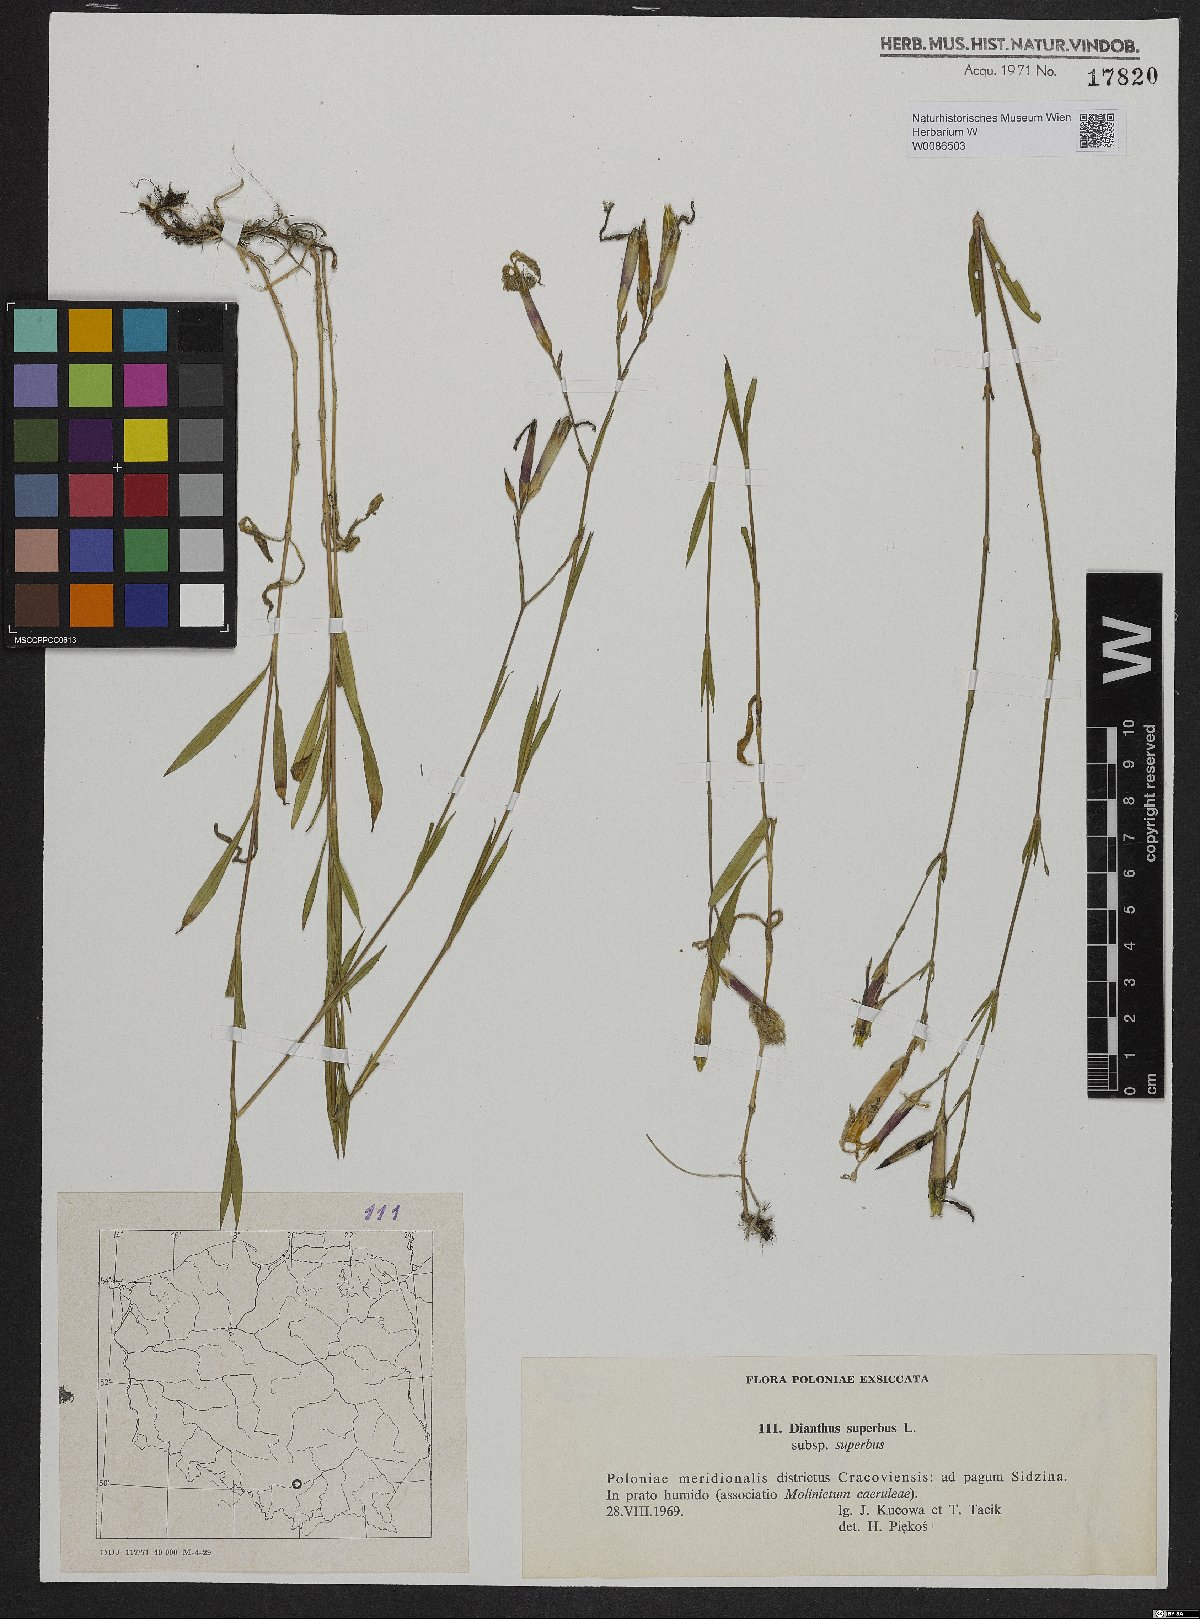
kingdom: Plantae
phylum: Tracheophyta
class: Magnoliopsida
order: Caryophyllales
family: Caryophyllaceae
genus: Dianthus
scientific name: Dianthus superbus
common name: Fringed pink
